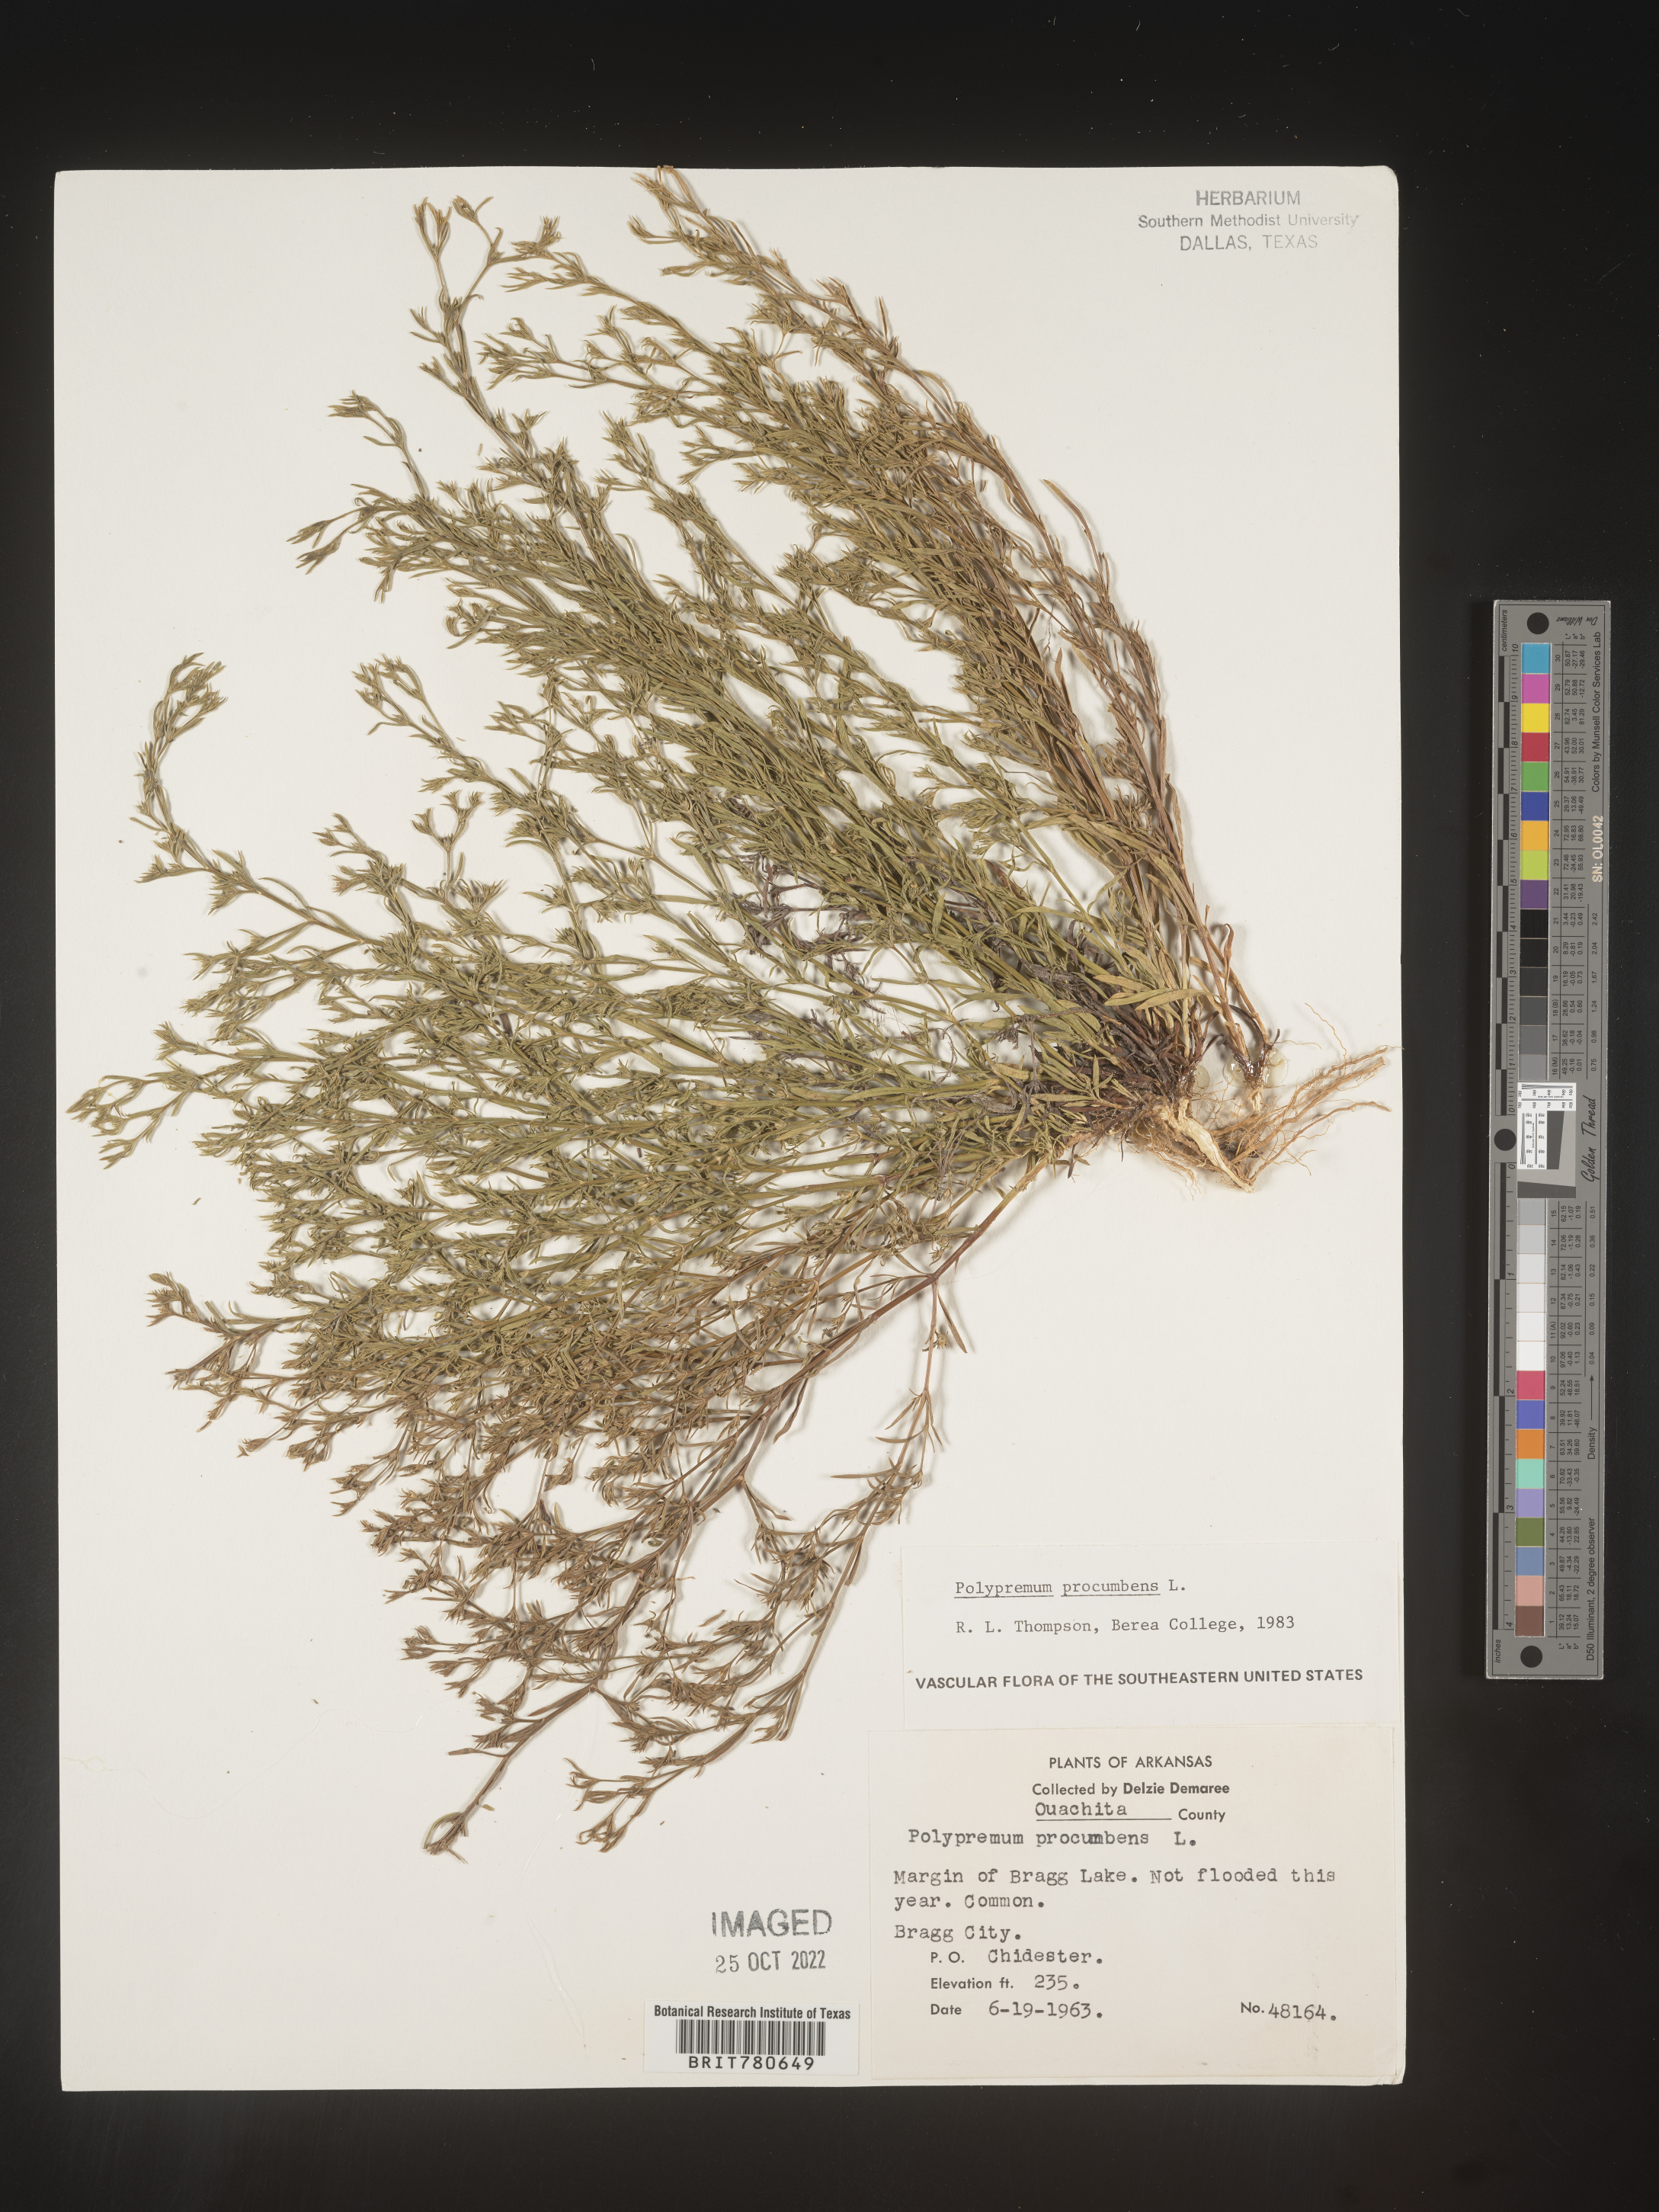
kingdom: Plantae
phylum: Tracheophyta
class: Magnoliopsida
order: Lamiales
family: Tetrachondraceae
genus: Polypremum
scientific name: Polypremum procumbens
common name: Juniper-leaf
